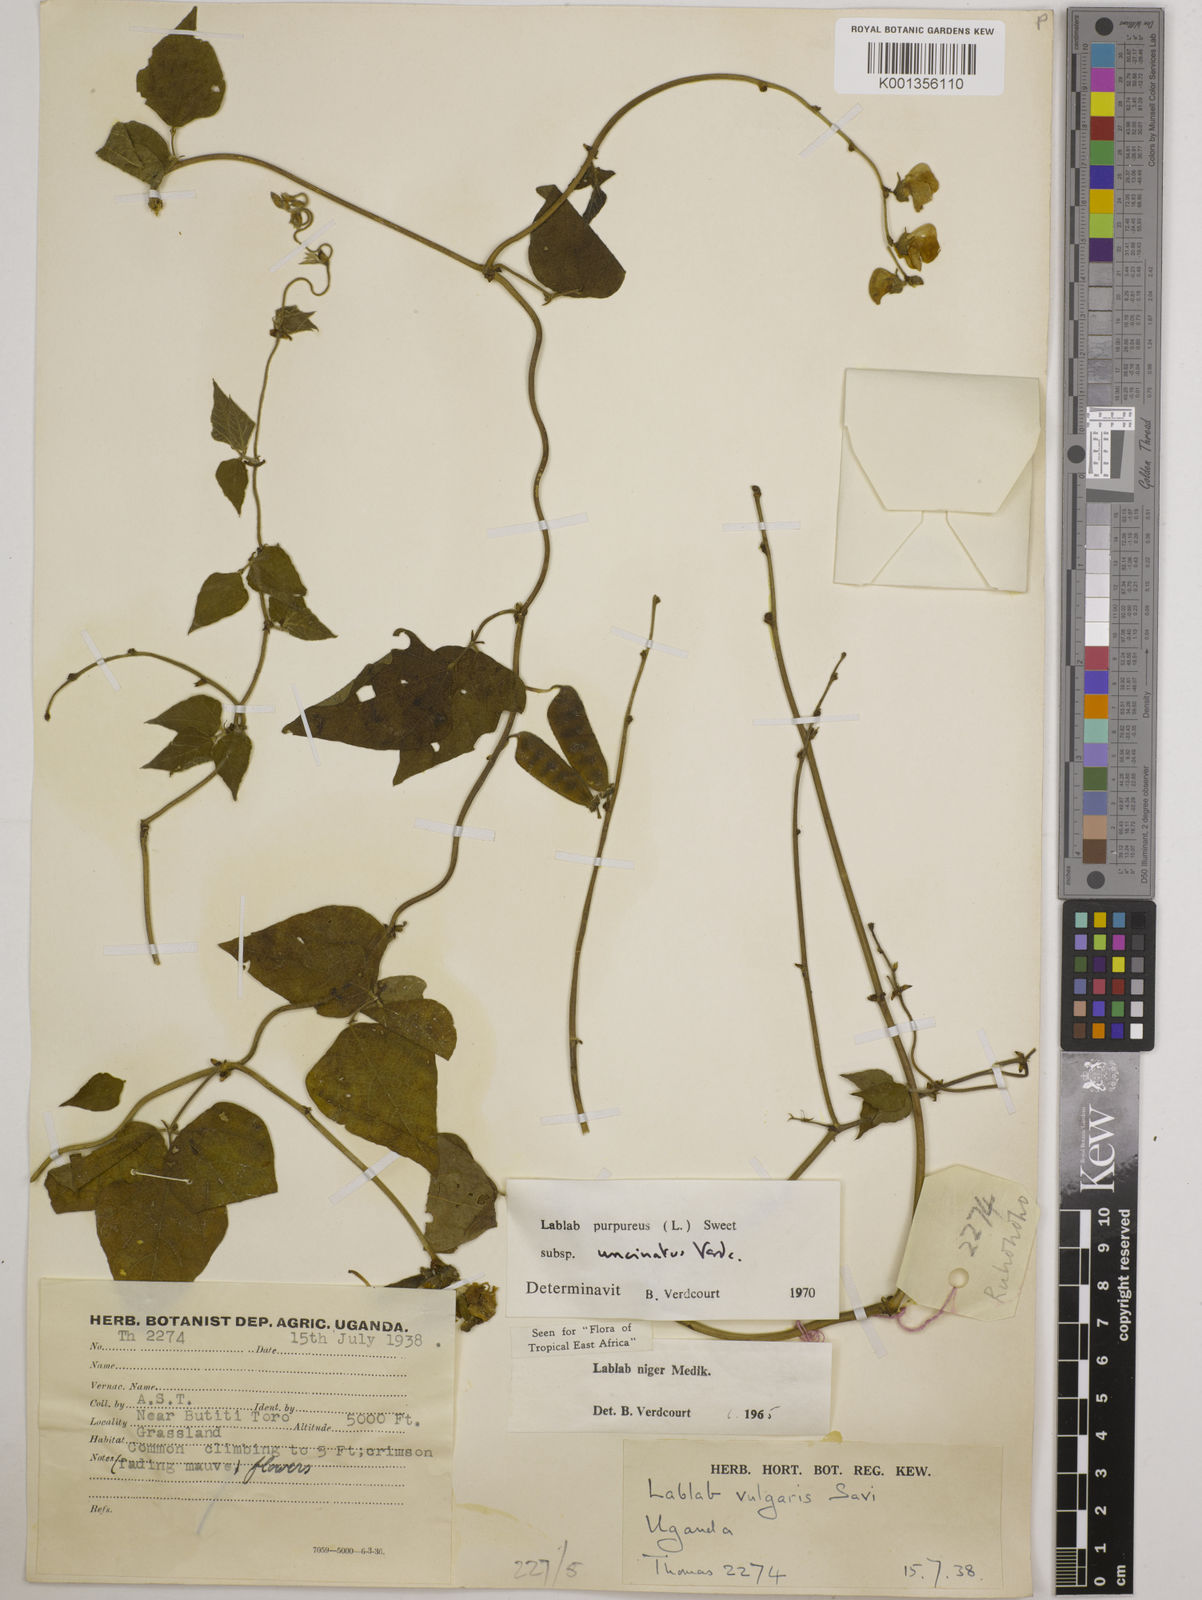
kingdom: Plantae
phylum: Tracheophyta
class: Magnoliopsida
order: Fabales
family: Fabaceae
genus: Lablab
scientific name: Lablab purpureus
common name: Lablab-bean
